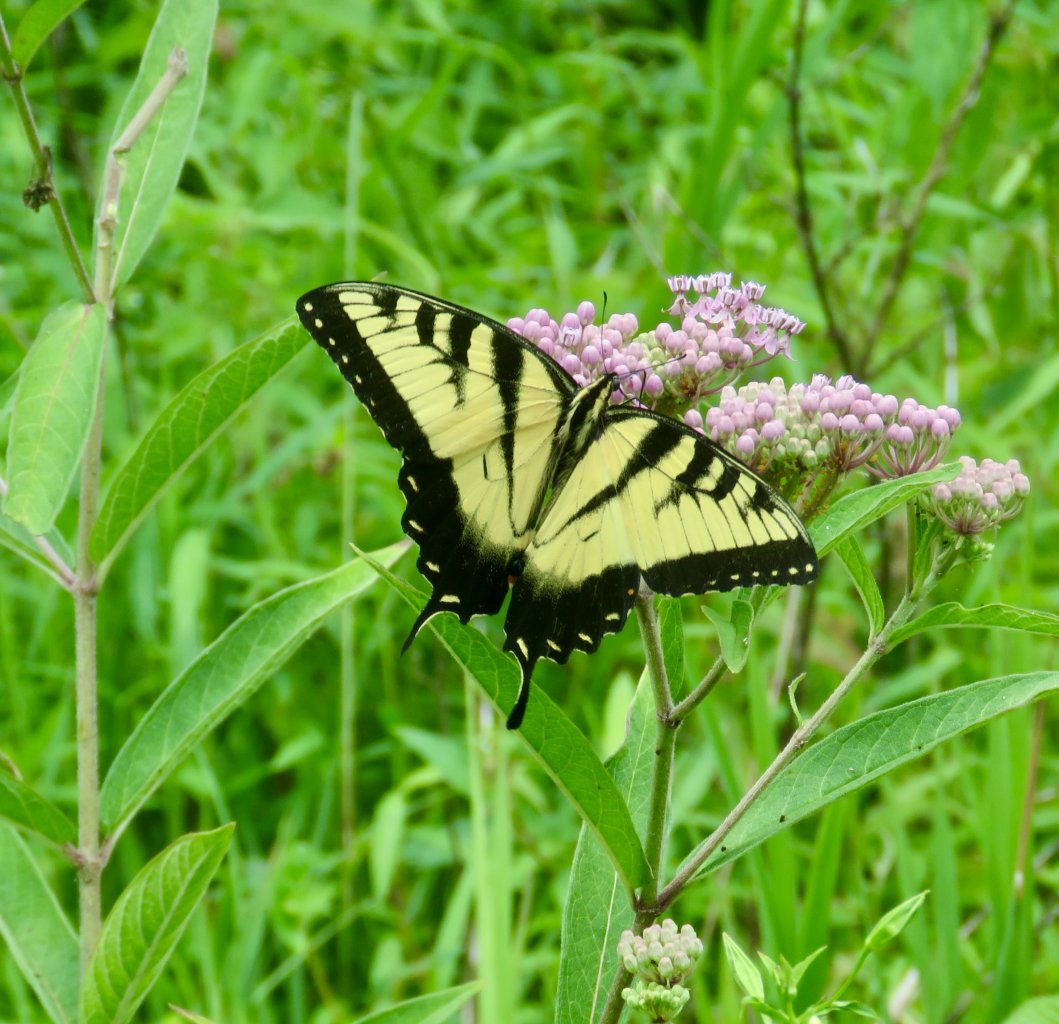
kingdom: Animalia
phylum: Arthropoda
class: Insecta
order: Lepidoptera
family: Papilionidae
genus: Pterourus
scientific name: Pterourus glaucus
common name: Eastern Tiger Swallowtail
